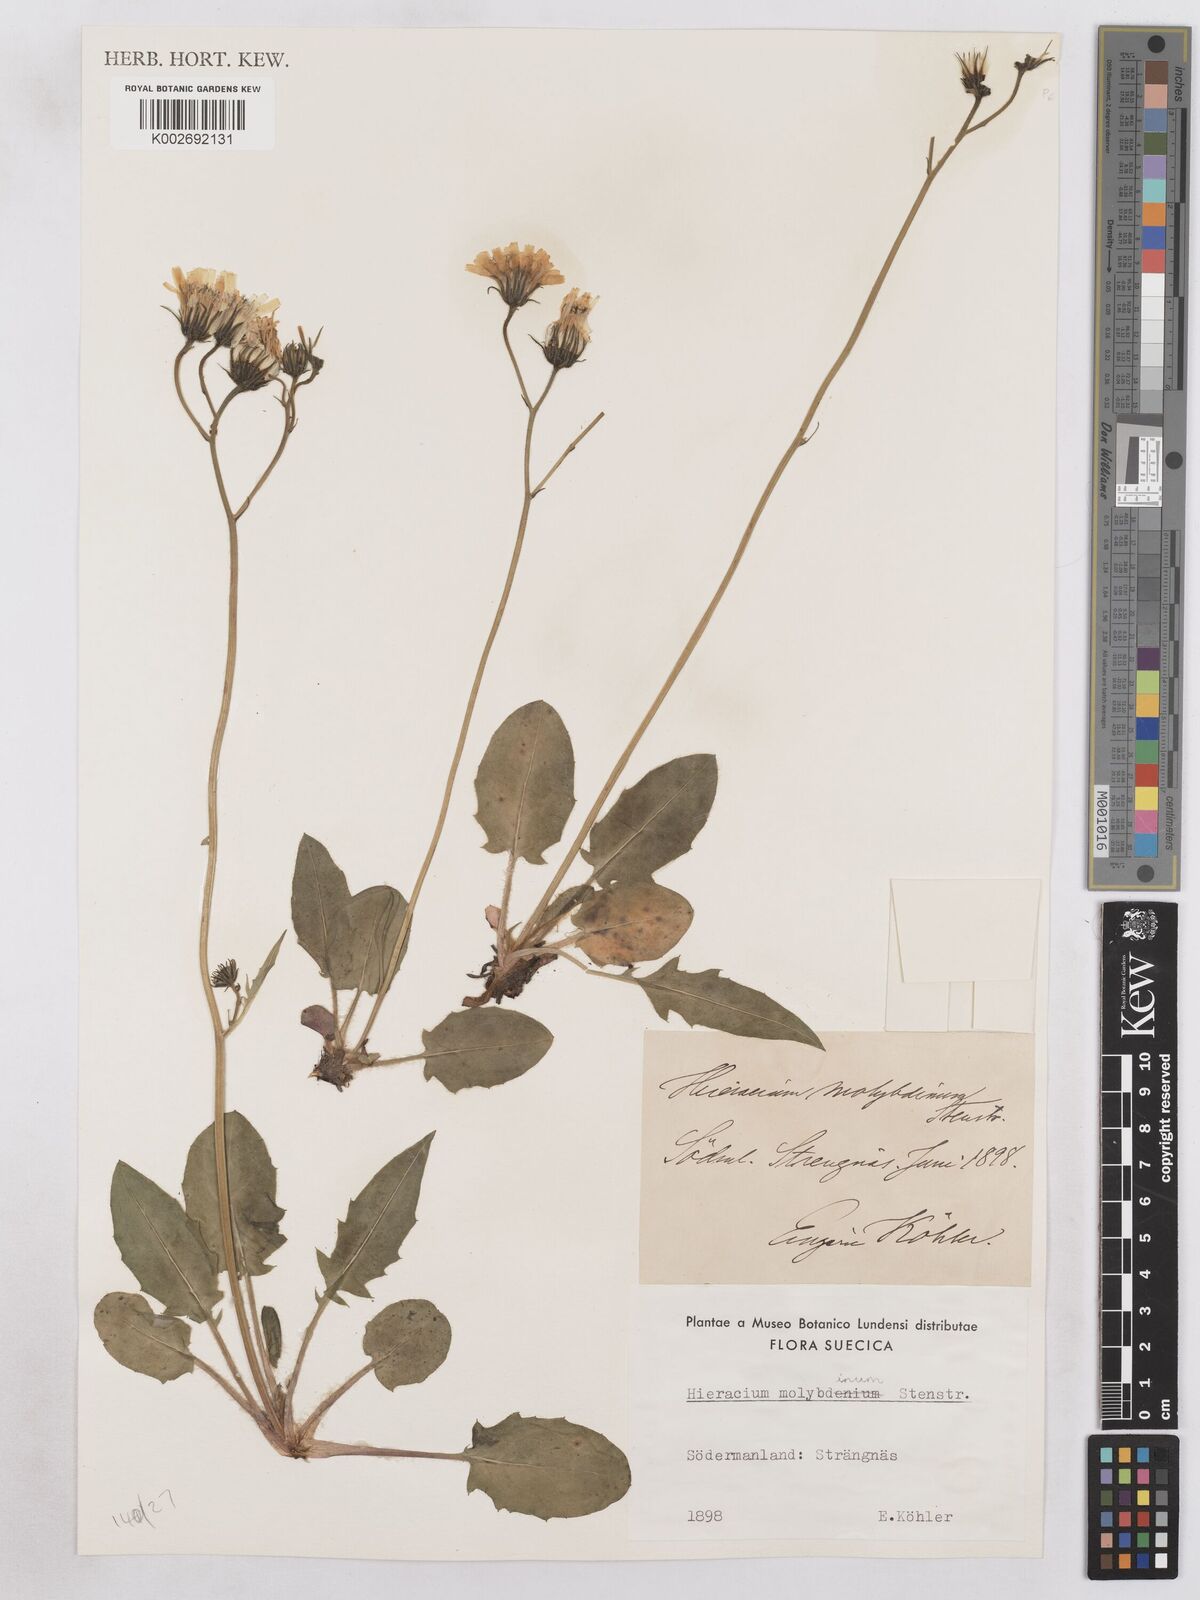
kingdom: Plantae
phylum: Tracheophyta
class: Magnoliopsida
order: Asterales
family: Asteraceae
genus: Hieracium
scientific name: Hieracium fuscocinereum
